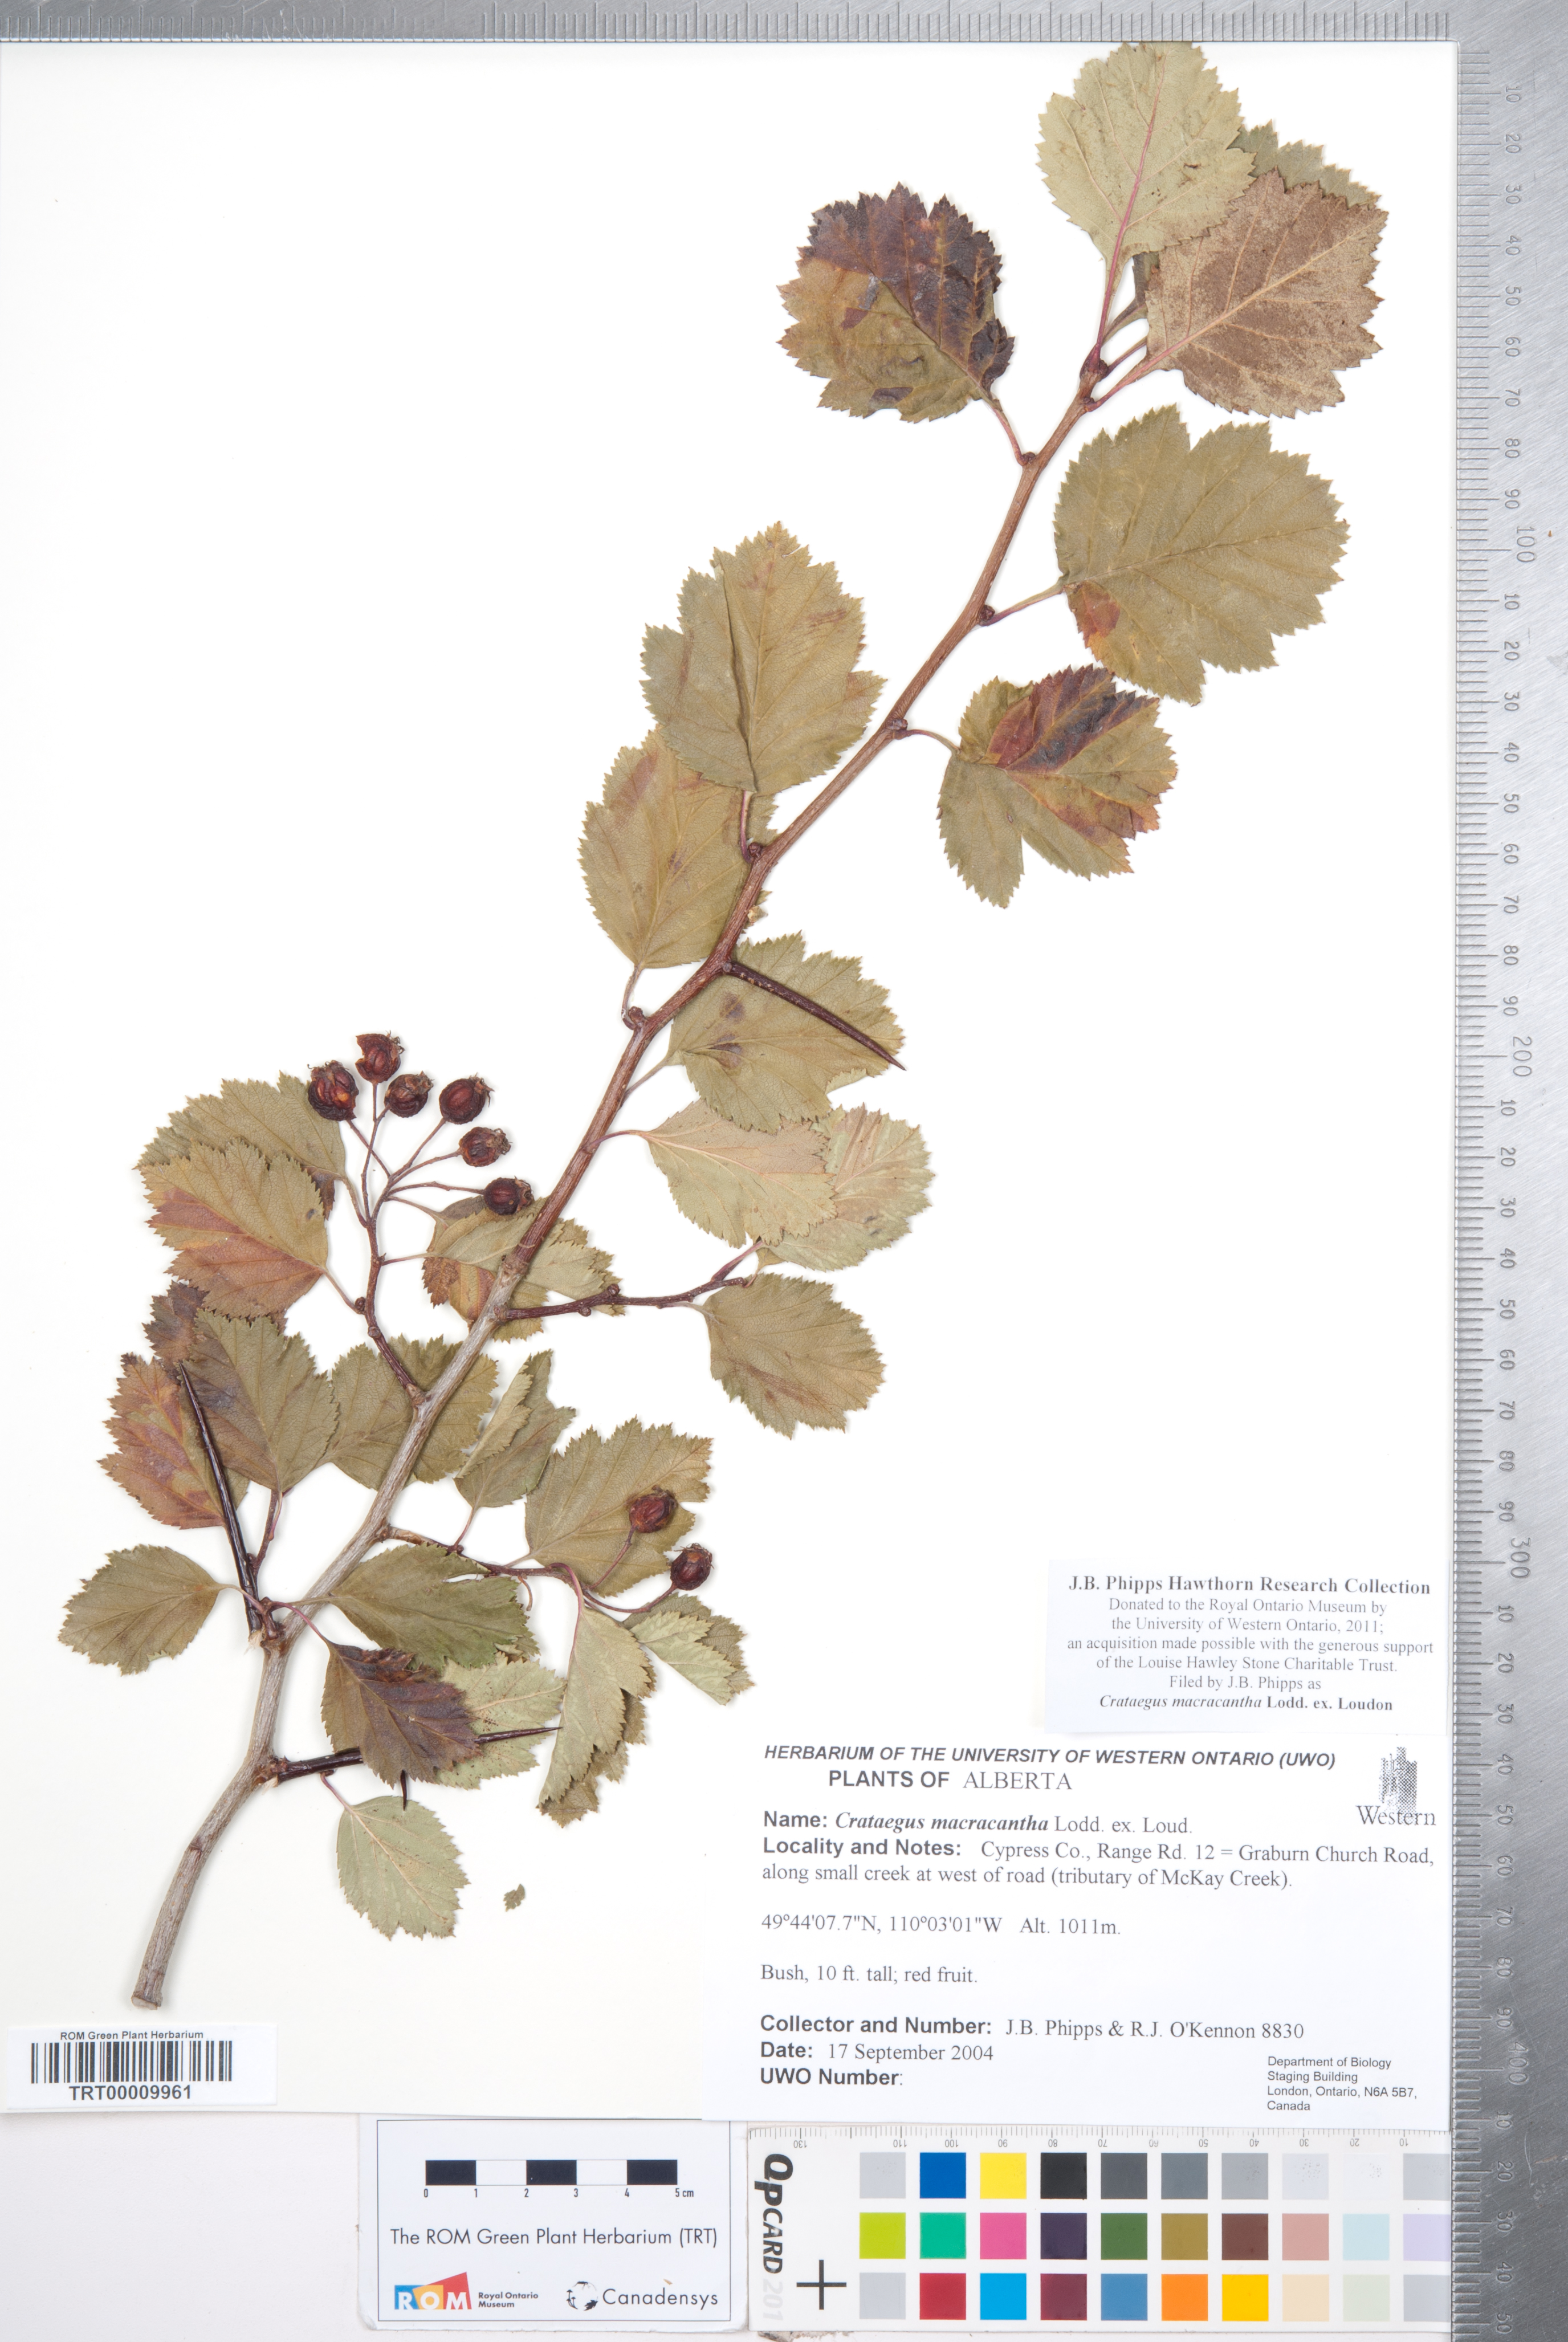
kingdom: Plantae
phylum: Tracheophyta
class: Magnoliopsida
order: Rosales
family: Rosaceae
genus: Crataegus
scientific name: Crataegus macracantha
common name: Large-thorn hawthorn
